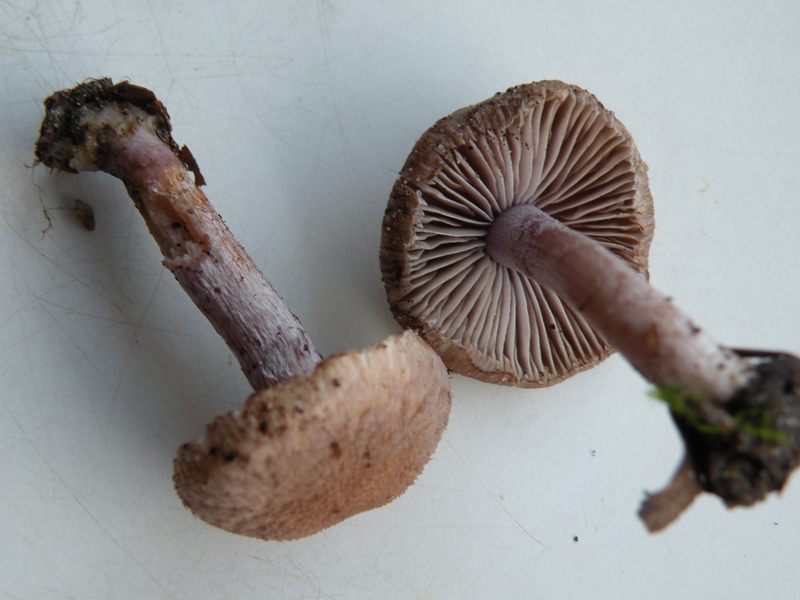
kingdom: Fungi
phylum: Basidiomycota
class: Agaricomycetes
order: Agaricales
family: Inocybaceae
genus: Inocybe
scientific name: Inocybe griseolilacina
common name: lillagrå trævlhat
